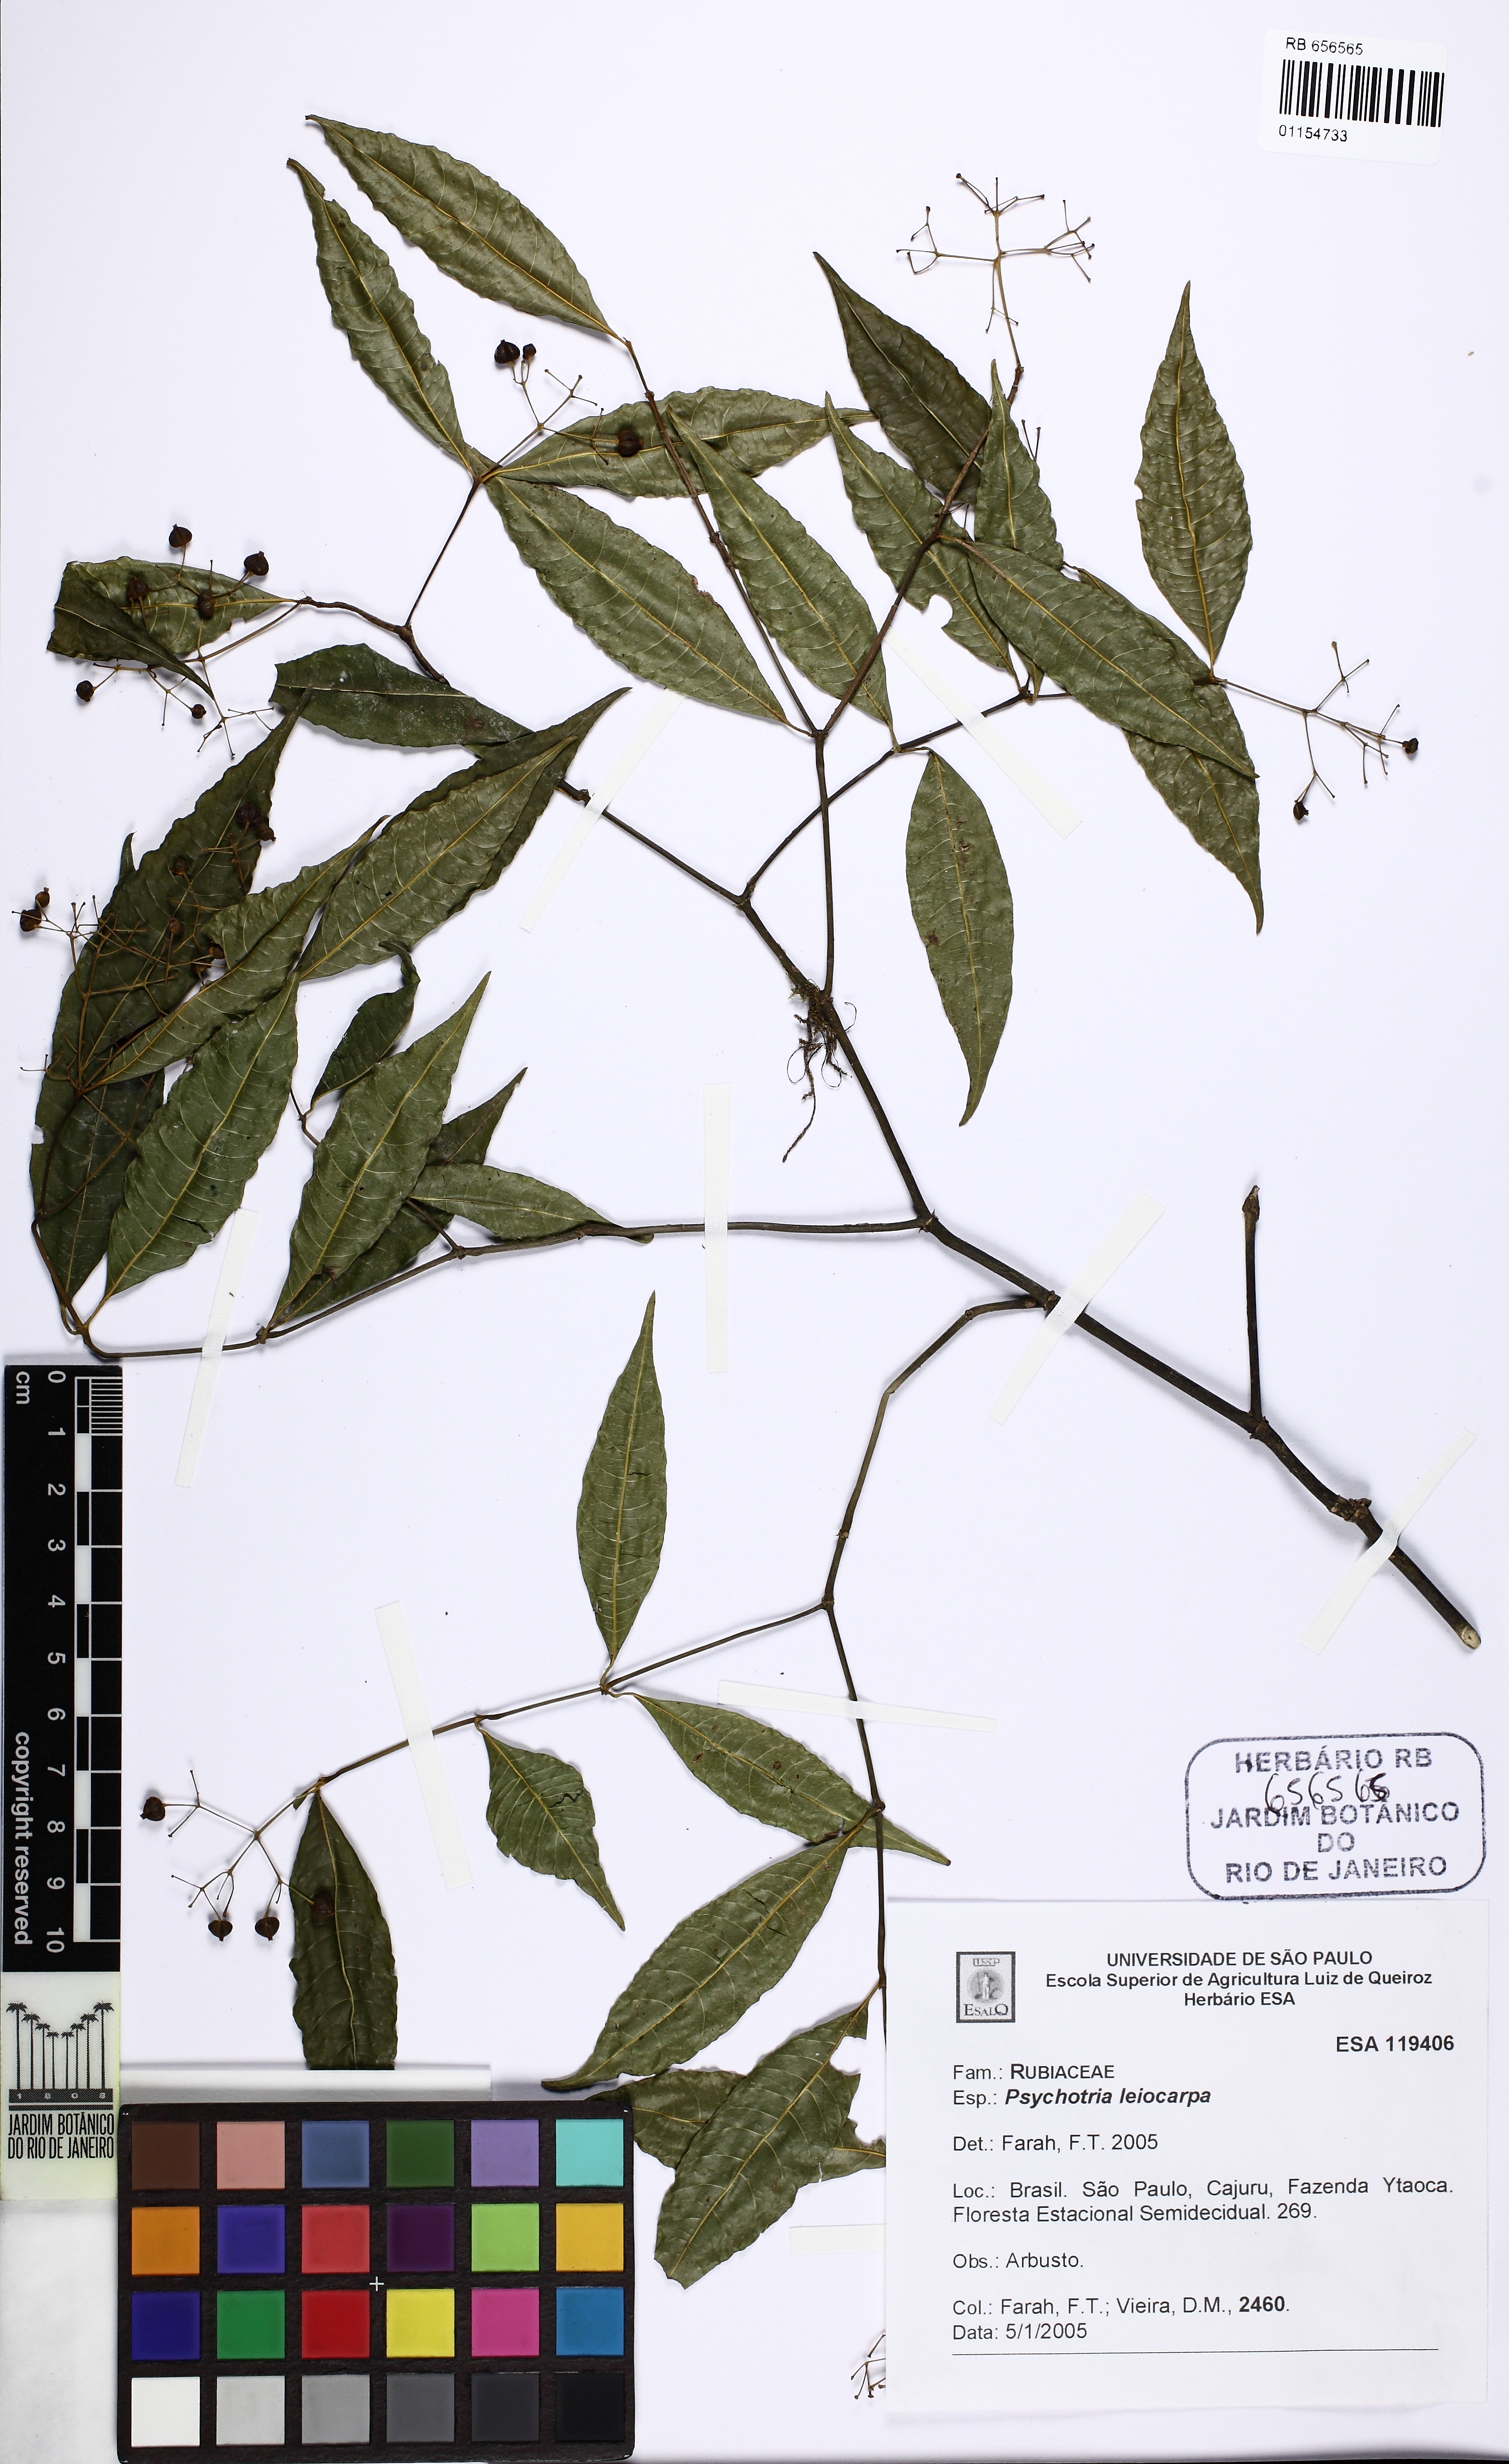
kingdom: Plantae
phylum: Tracheophyta
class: Magnoliopsida
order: Gentianales
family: Rubiaceae
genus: Psychotria
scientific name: Psychotria leiocarpa
